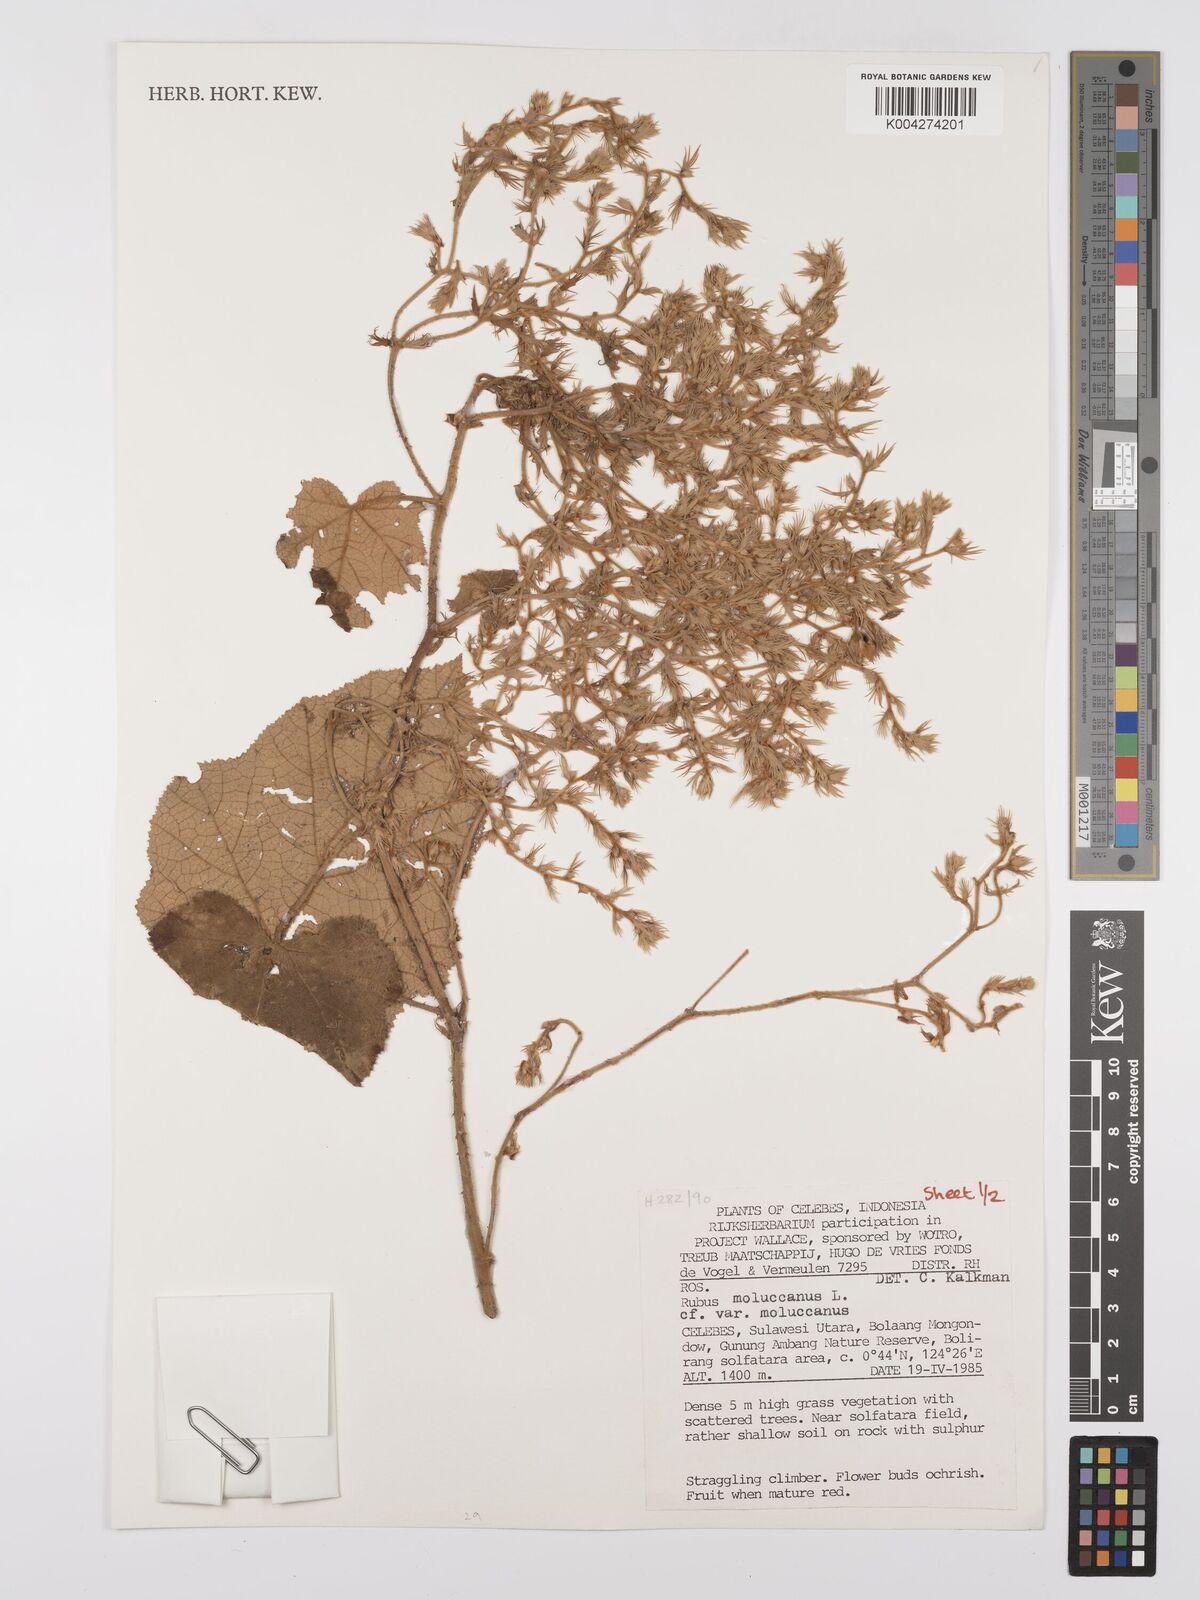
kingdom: Plantae
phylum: Tracheophyta
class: Magnoliopsida
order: Rosales
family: Rosaceae
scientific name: Rosaceae
